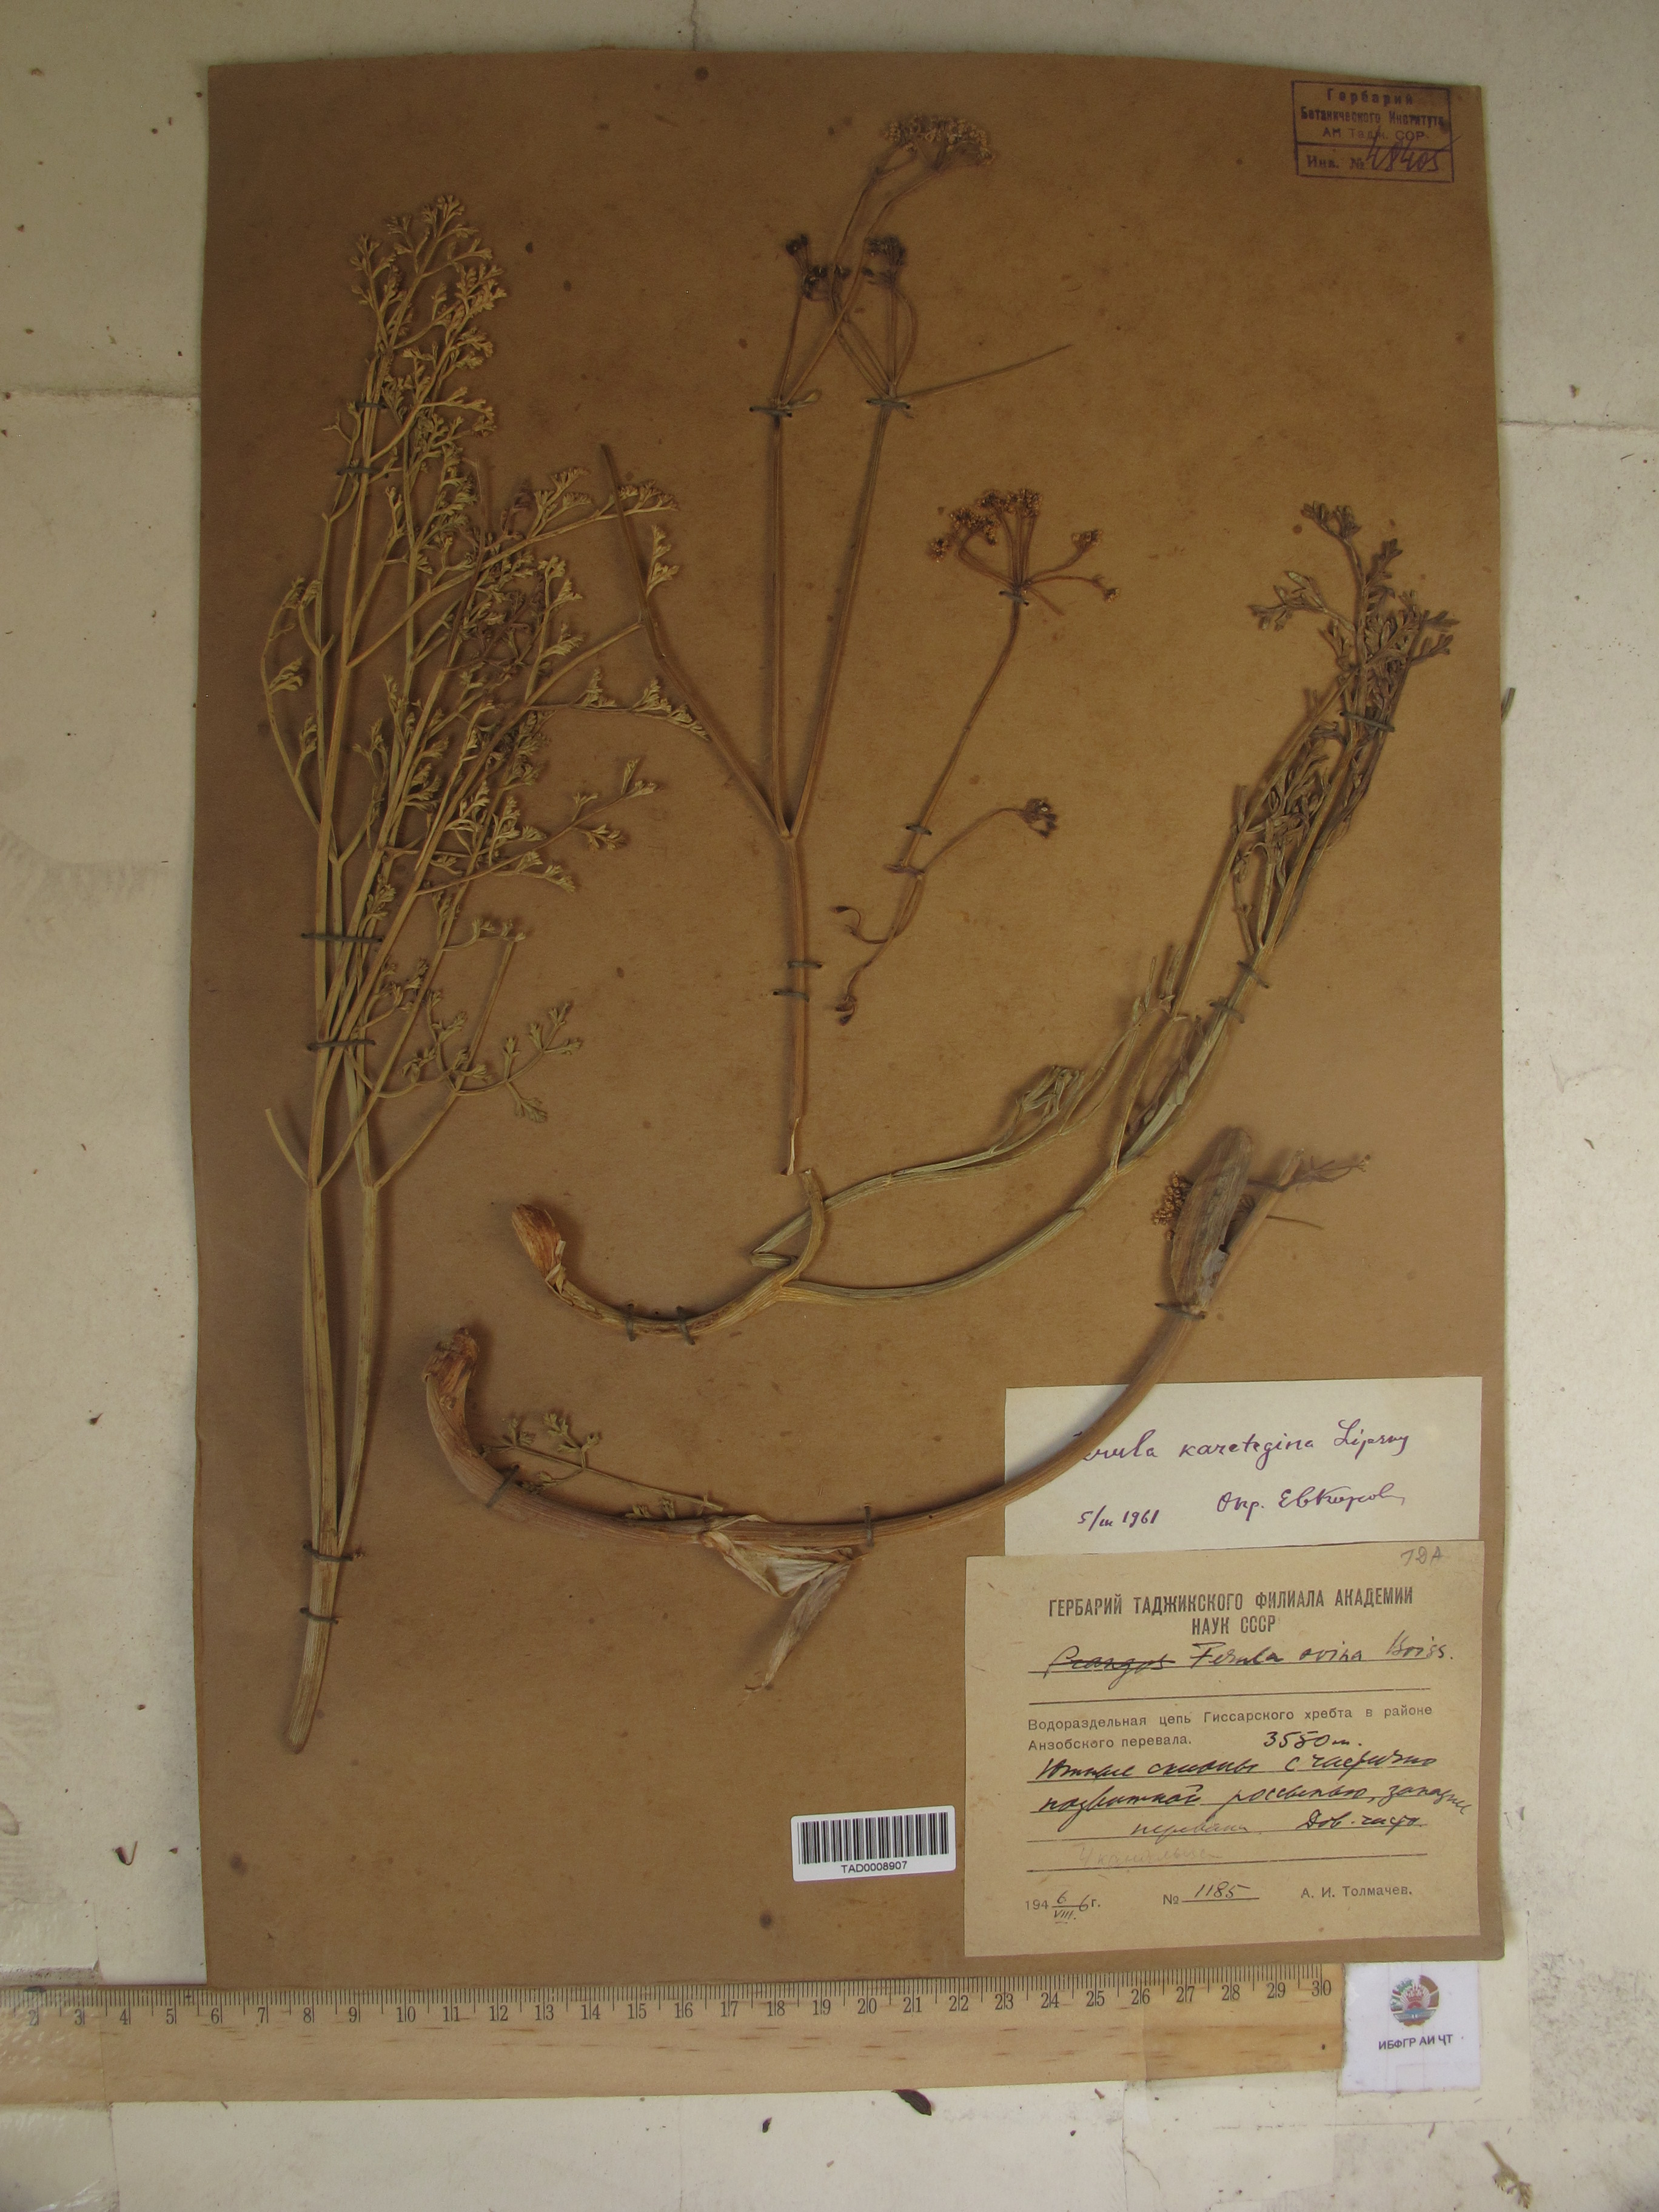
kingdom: Plantae
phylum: Tracheophyta
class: Magnoliopsida
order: Apiales
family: Apiaceae
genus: Ferula
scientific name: Ferula karategina
